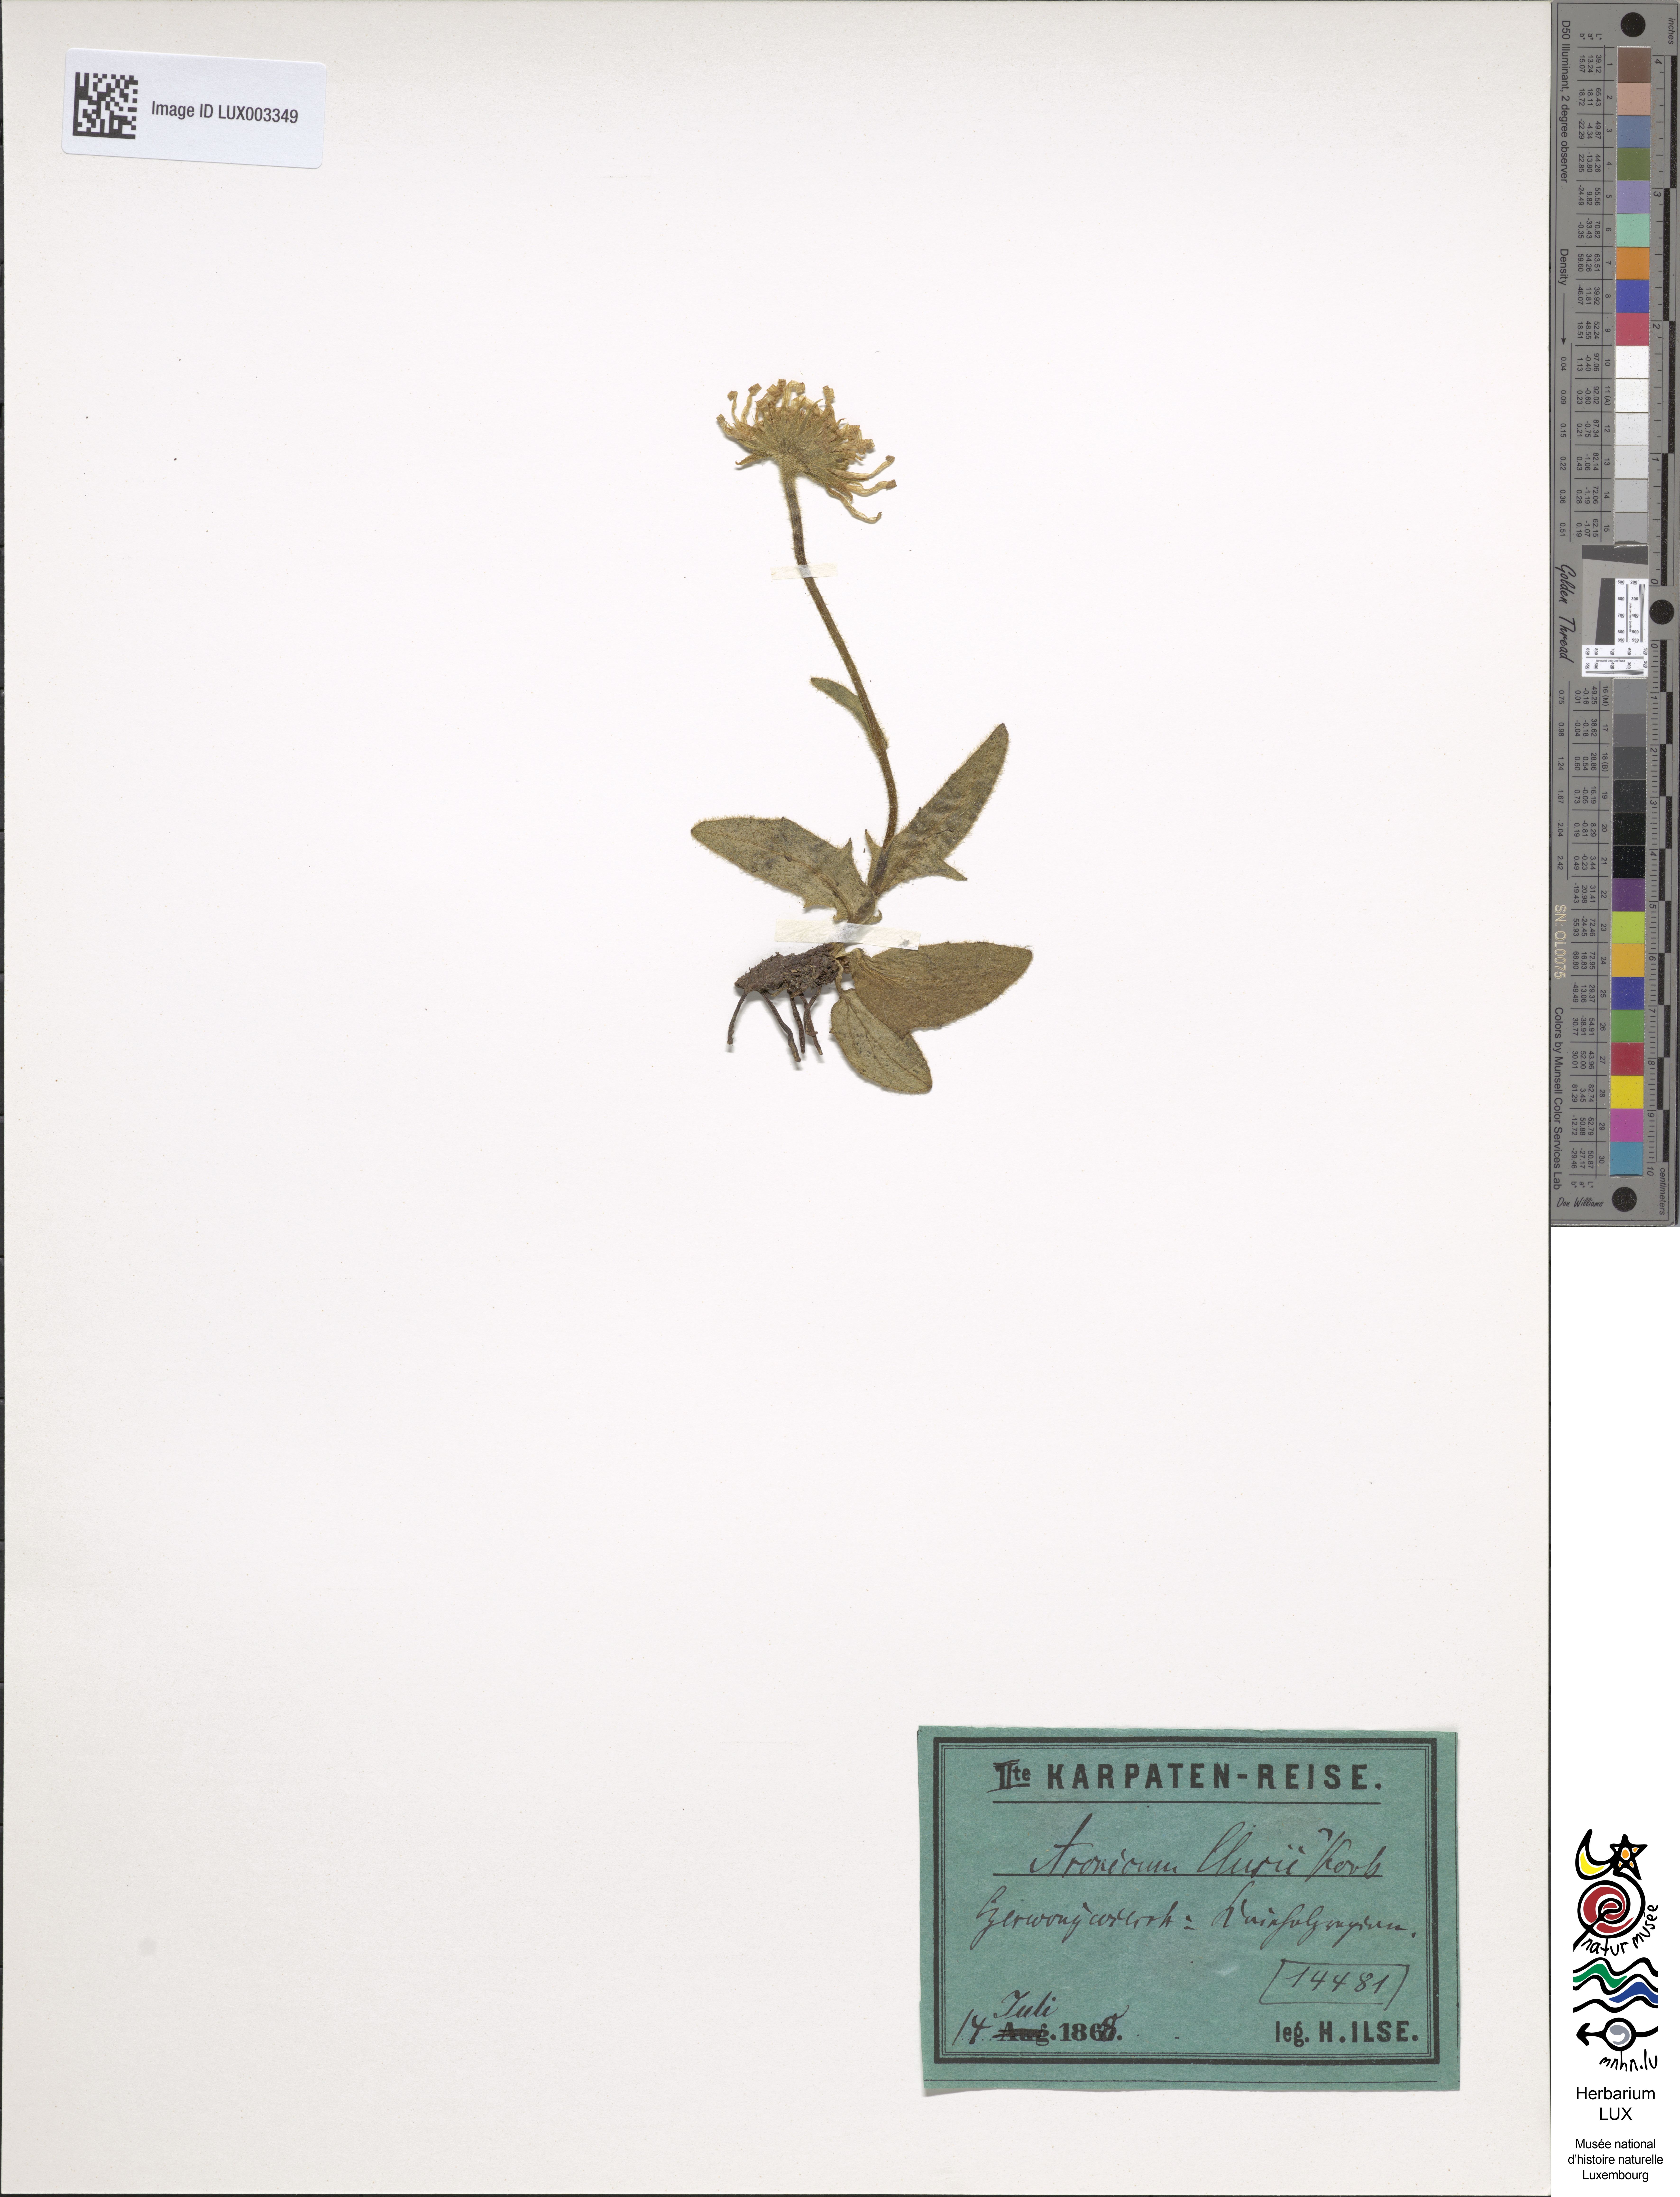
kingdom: Plantae
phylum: Tracheophyta
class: Magnoliopsida
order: Asterales
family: Asteraceae
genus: Doronicum
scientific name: Doronicum clusii
